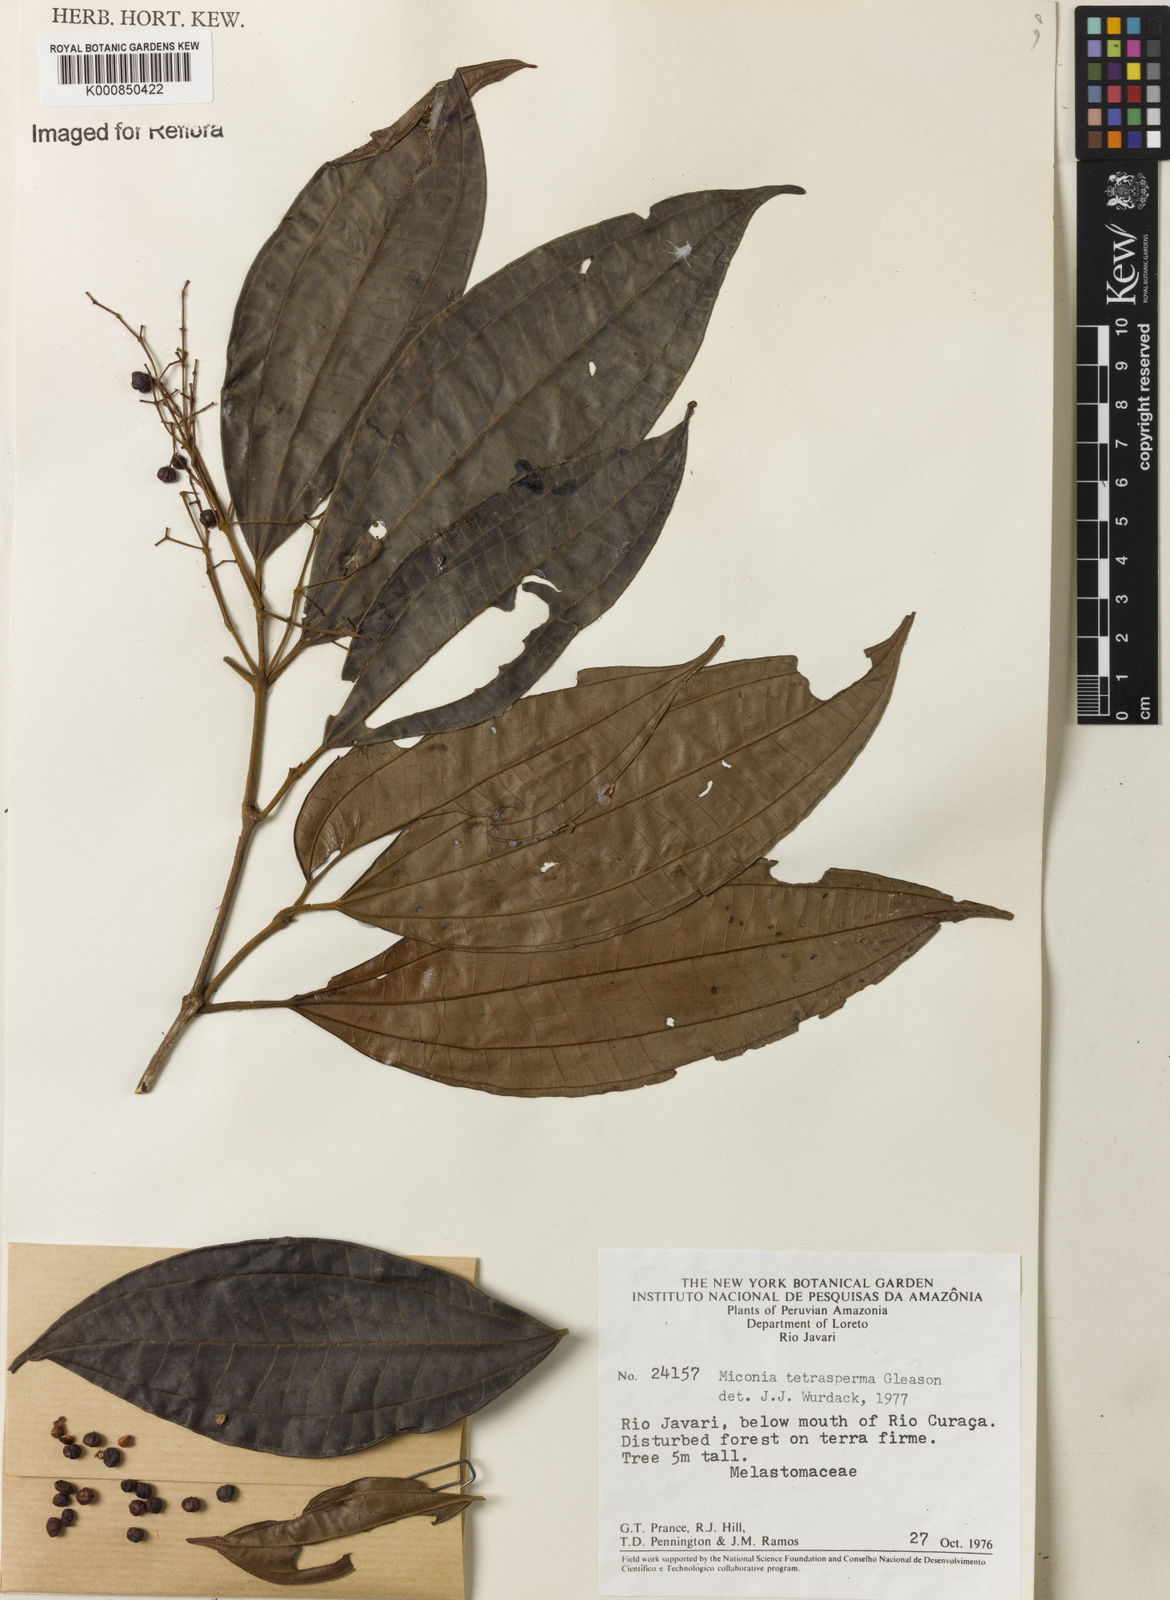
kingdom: Plantae
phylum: Tracheophyta
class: Magnoliopsida
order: Myrtales
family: Melastomataceae
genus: Miconia
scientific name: Miconia tetrasperma
